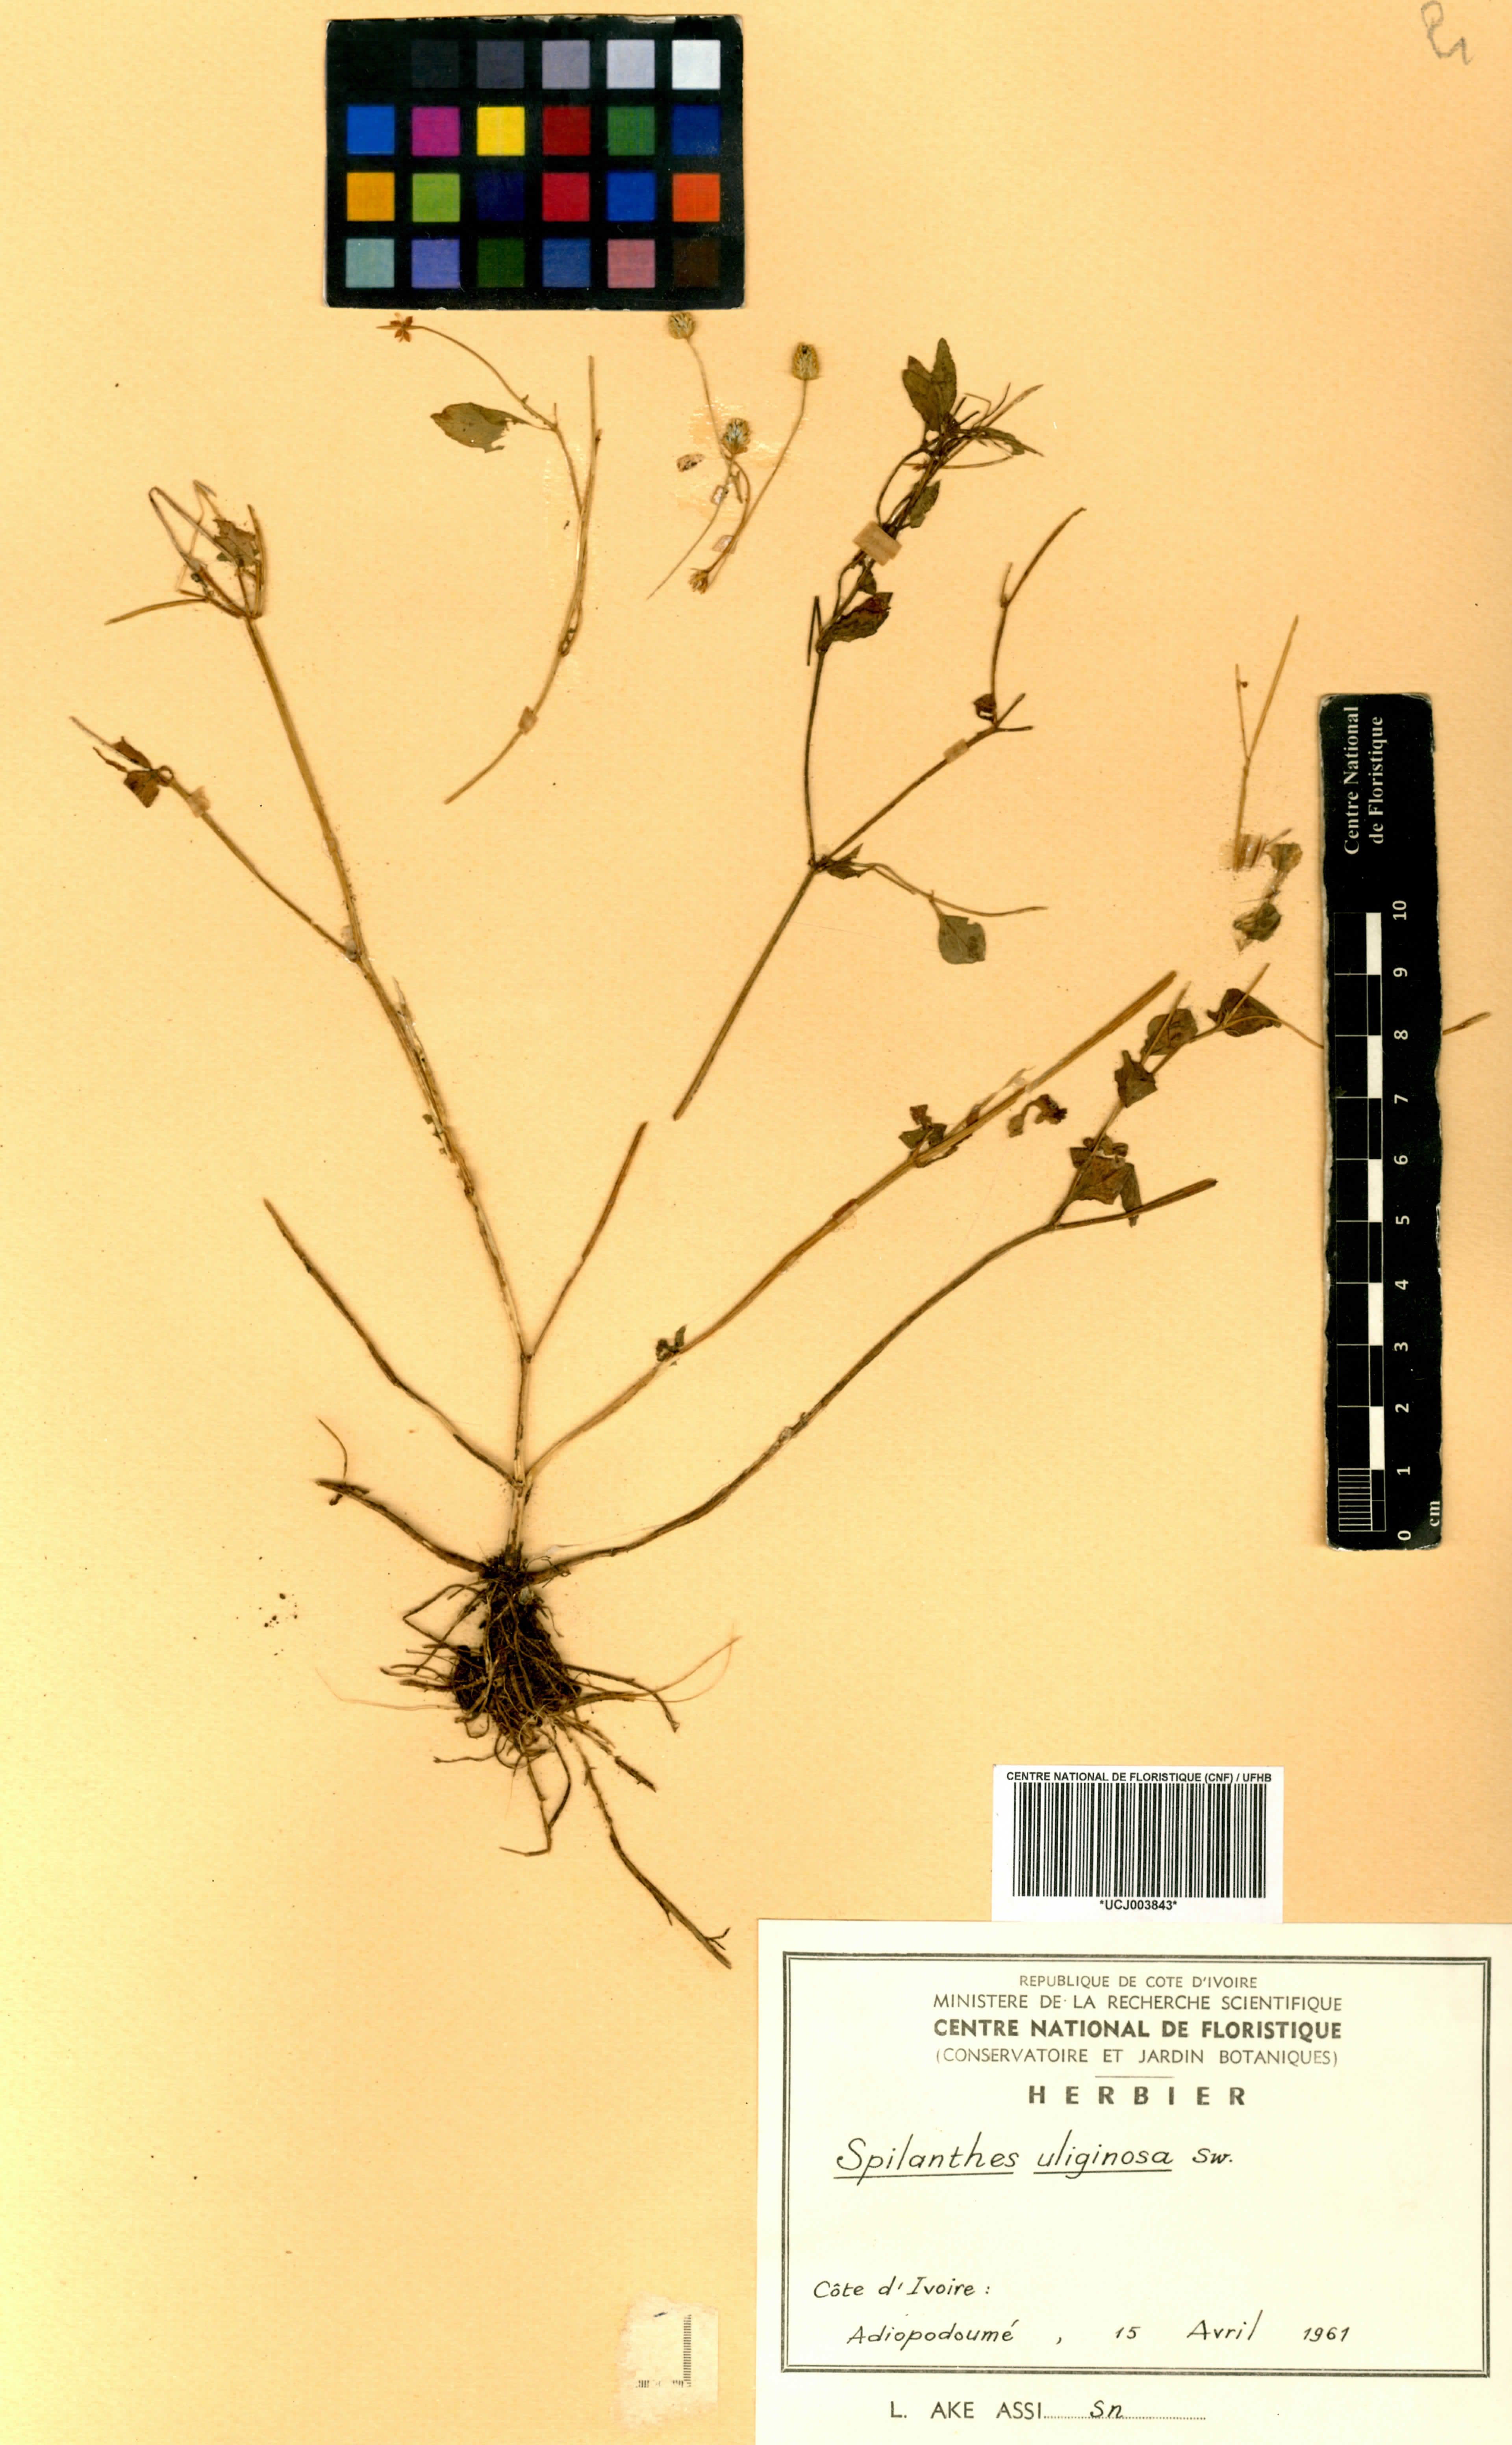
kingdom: Plantae
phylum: Tracheophyta
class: Magnoliopsida
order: Asterales
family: Asteraceae
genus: Acmella
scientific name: Acmella uliginosa
